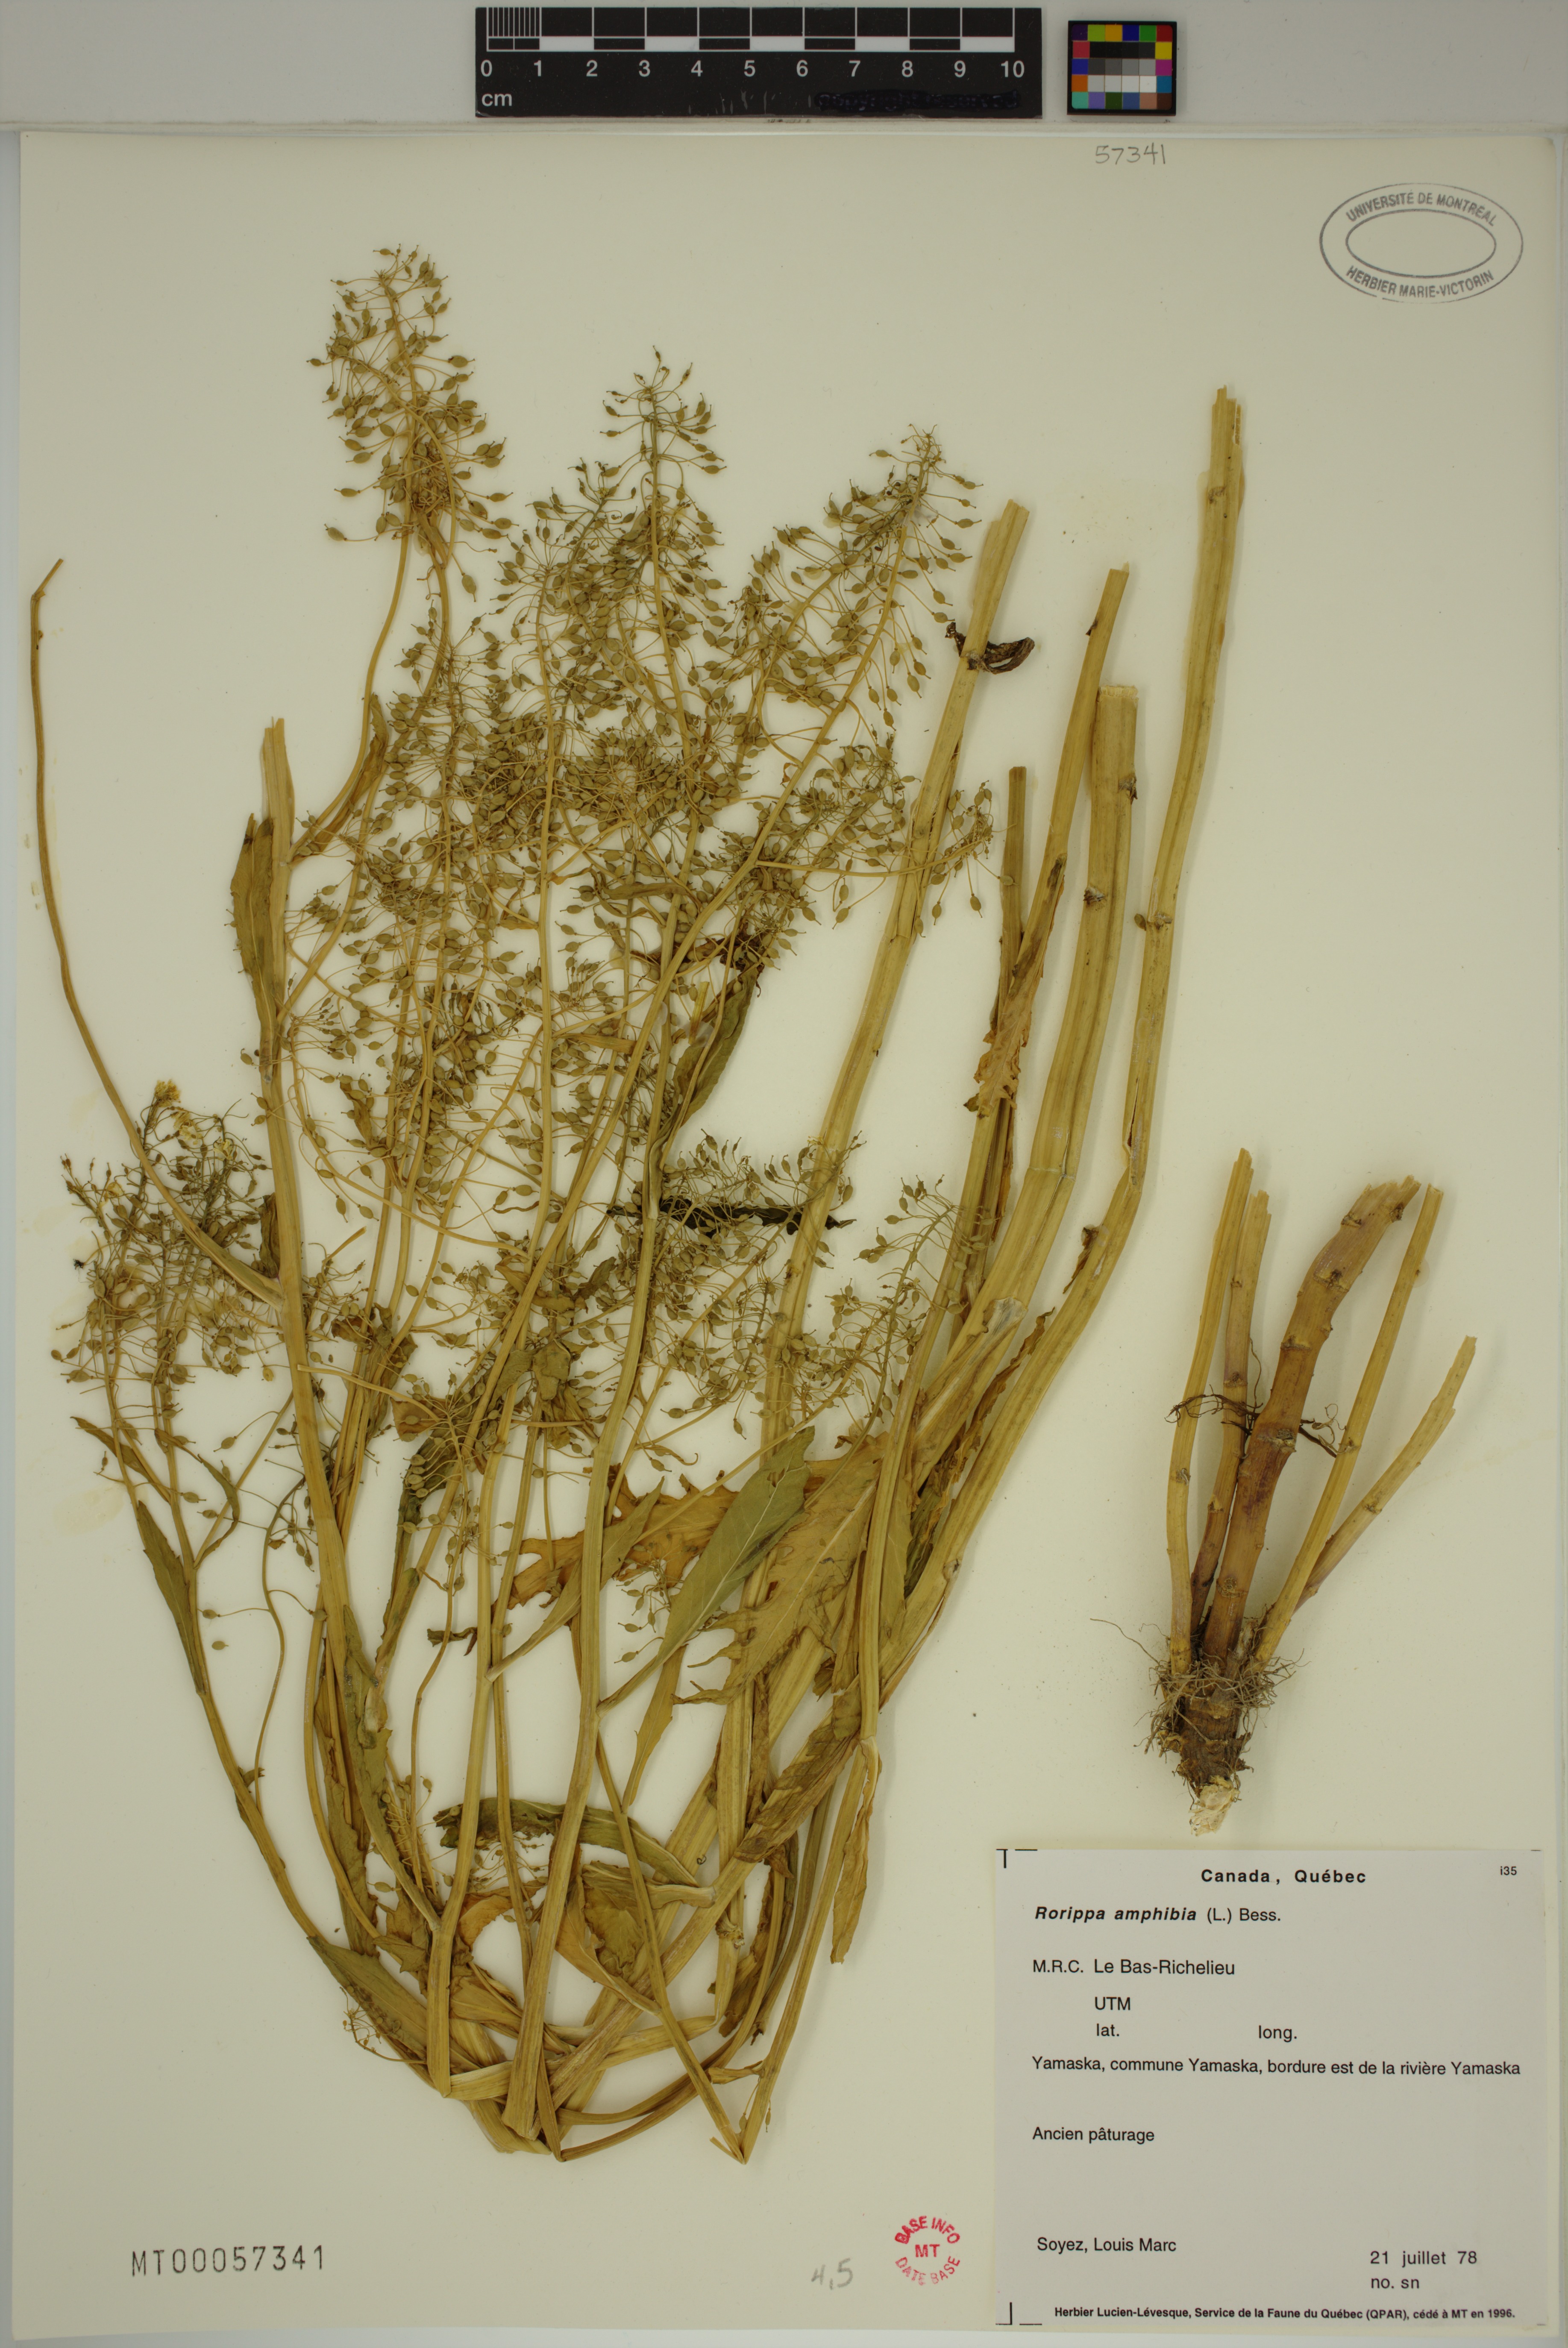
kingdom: Plantae
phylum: Tracheophyta
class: Magnoliopsida
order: Brassicales
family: Brassicaceae
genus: Rorippa
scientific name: Rorippa amphibia
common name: Great yellow-cress
